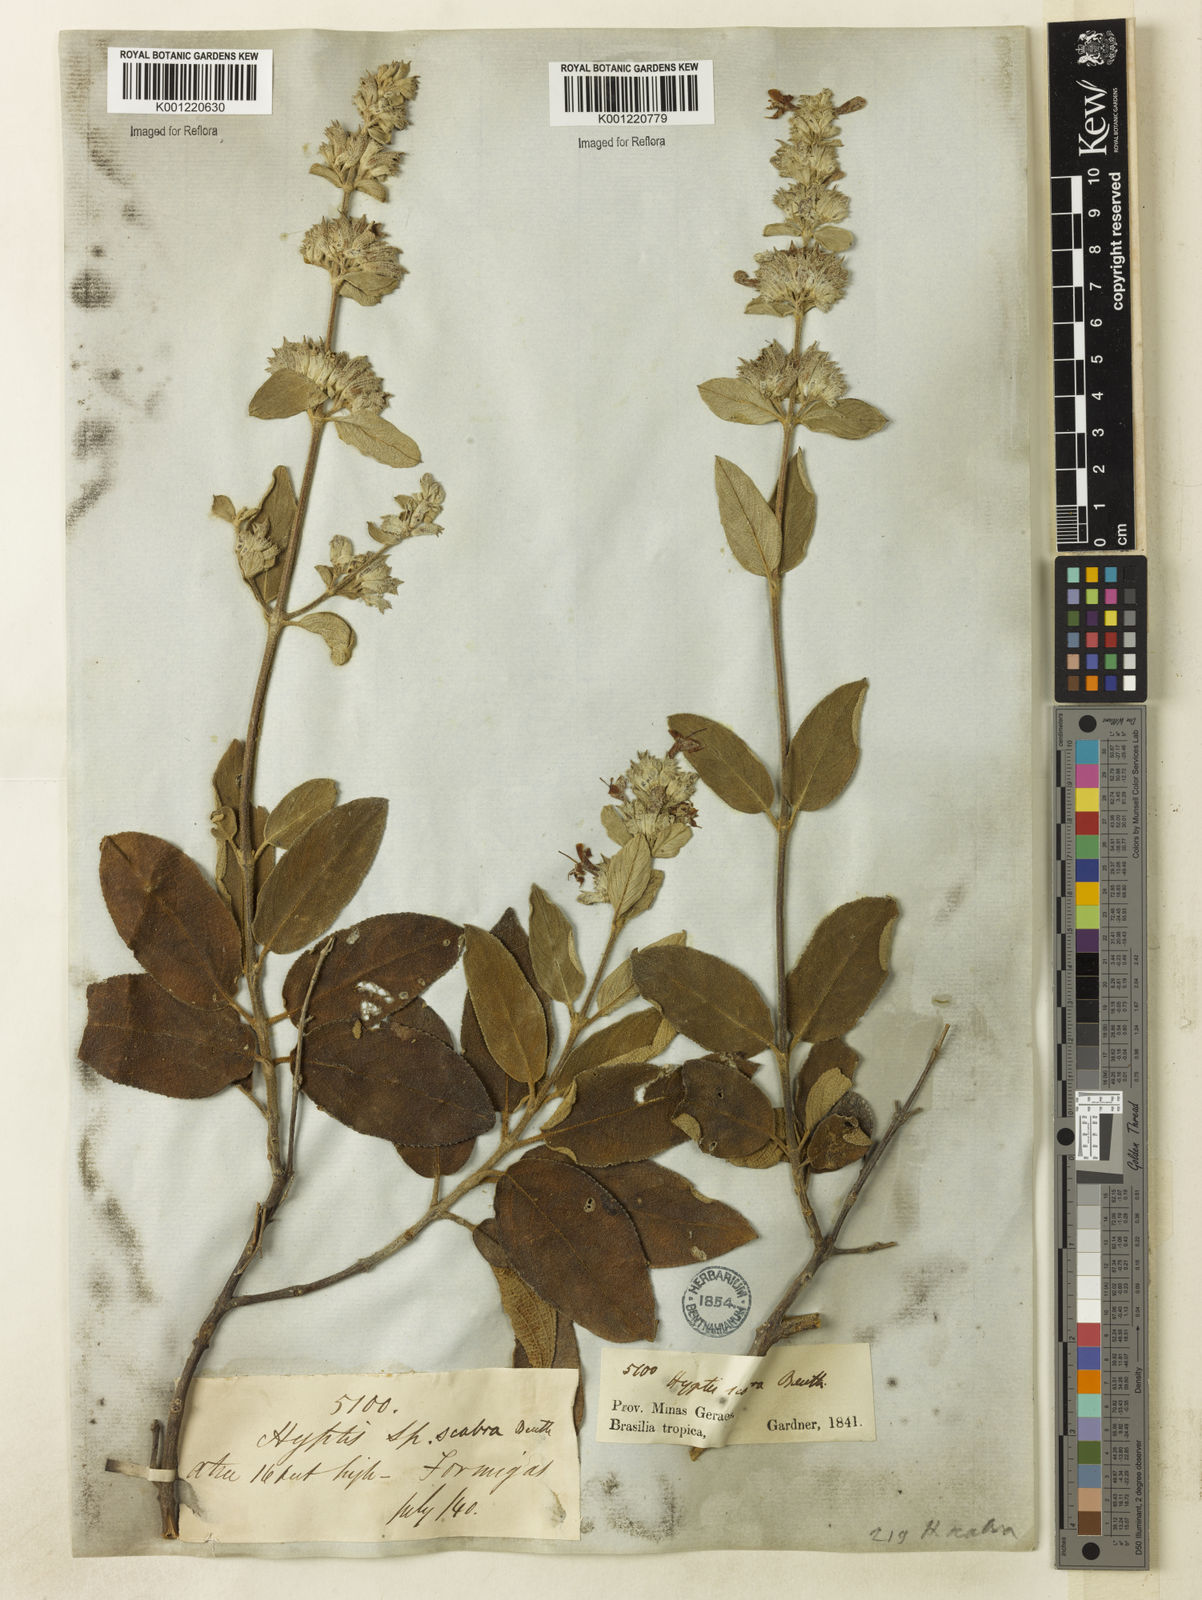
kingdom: Plantae
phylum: Tracheophyta
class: Magnoliopsida
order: Lamiales
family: Lamiaceae
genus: Hyptidendron
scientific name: Hyptidendron canum
